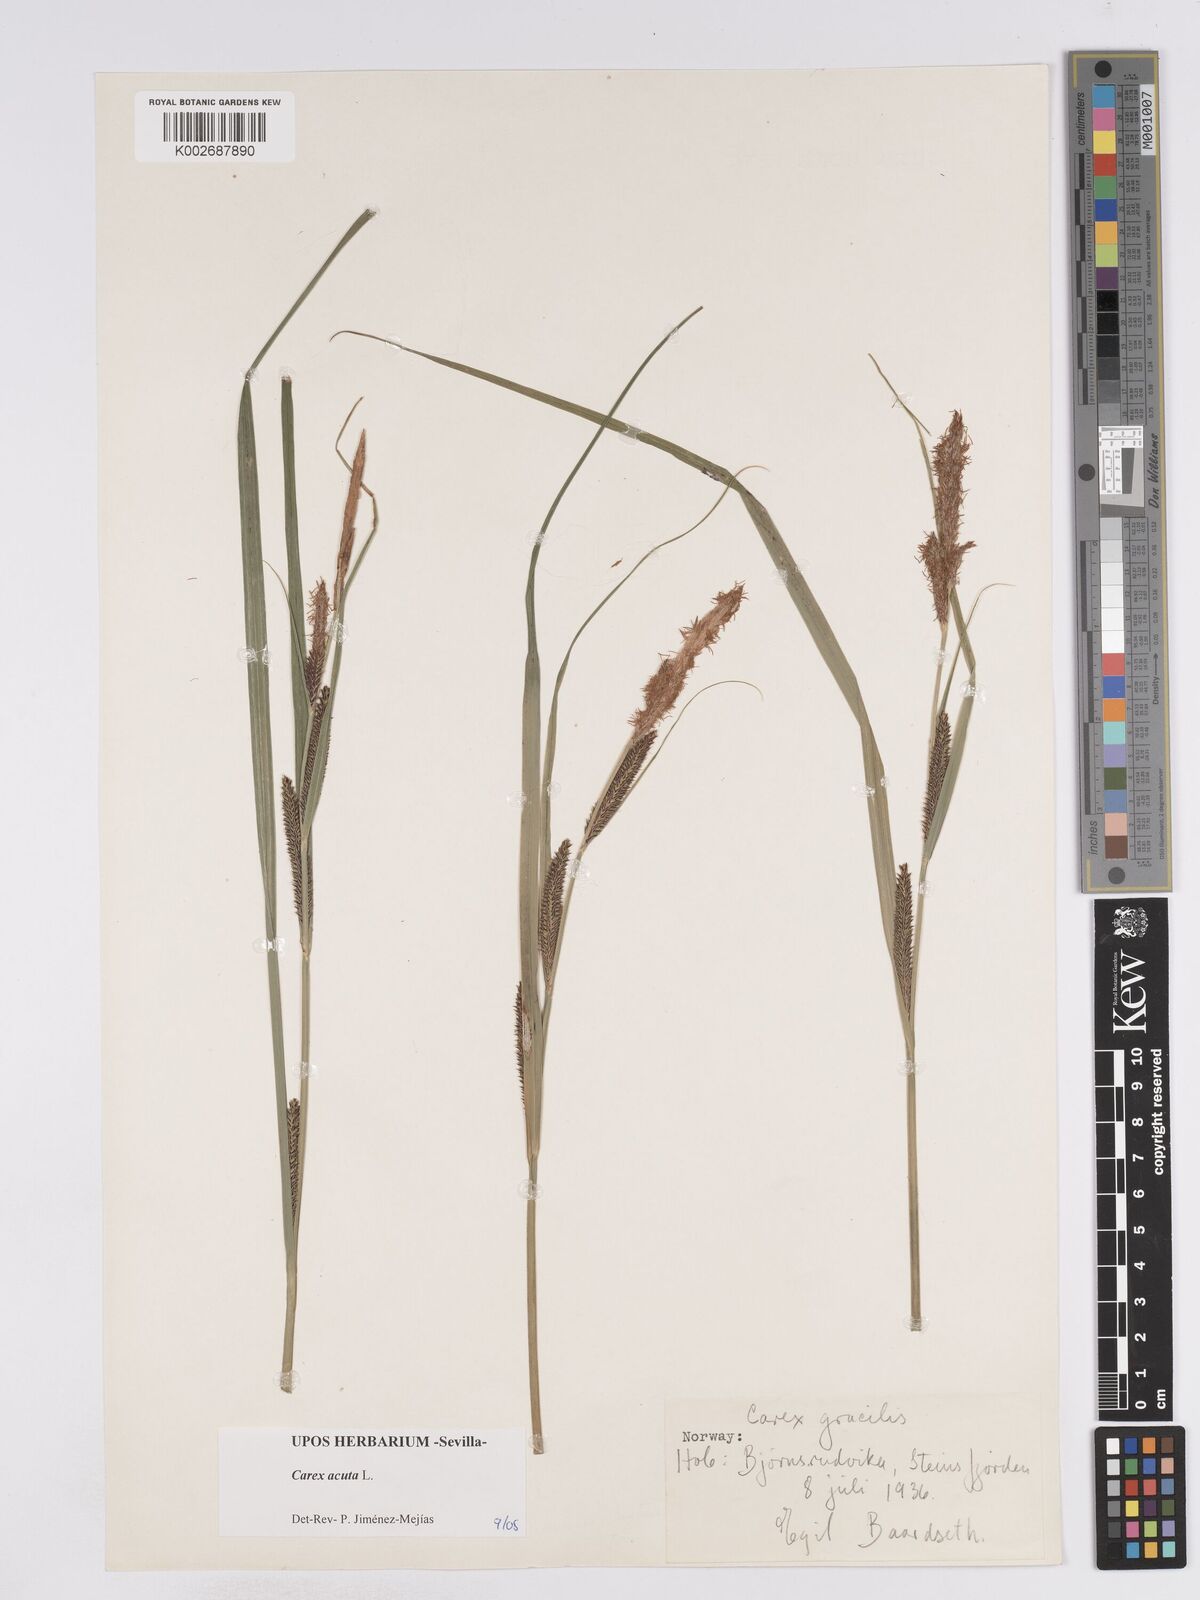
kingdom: Plantae
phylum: Tracheophyta
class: Liliopsida
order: Poales
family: Cyperaceae
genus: Carex
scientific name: Carex acuta
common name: Slender tufted-sedge
